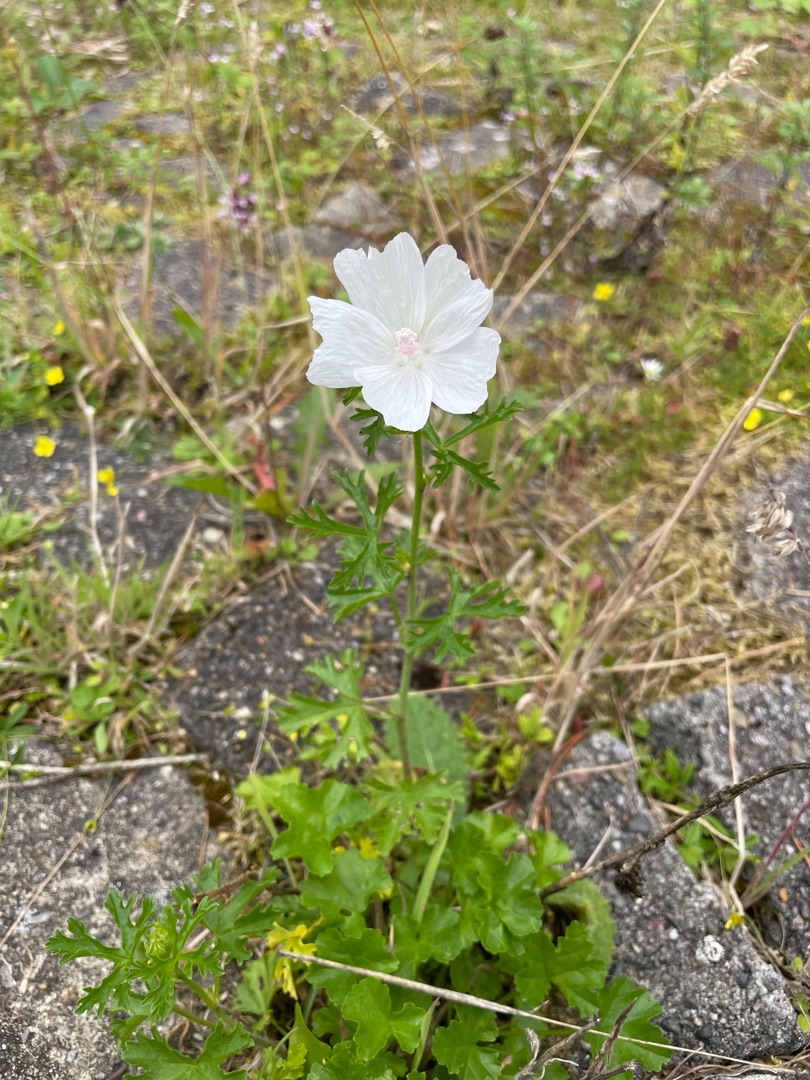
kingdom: Plantae
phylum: Tracheophyta
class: Magnoliopsida
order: Malvales
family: Malvaceae
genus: Malva
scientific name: Malva
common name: Katostslægten
